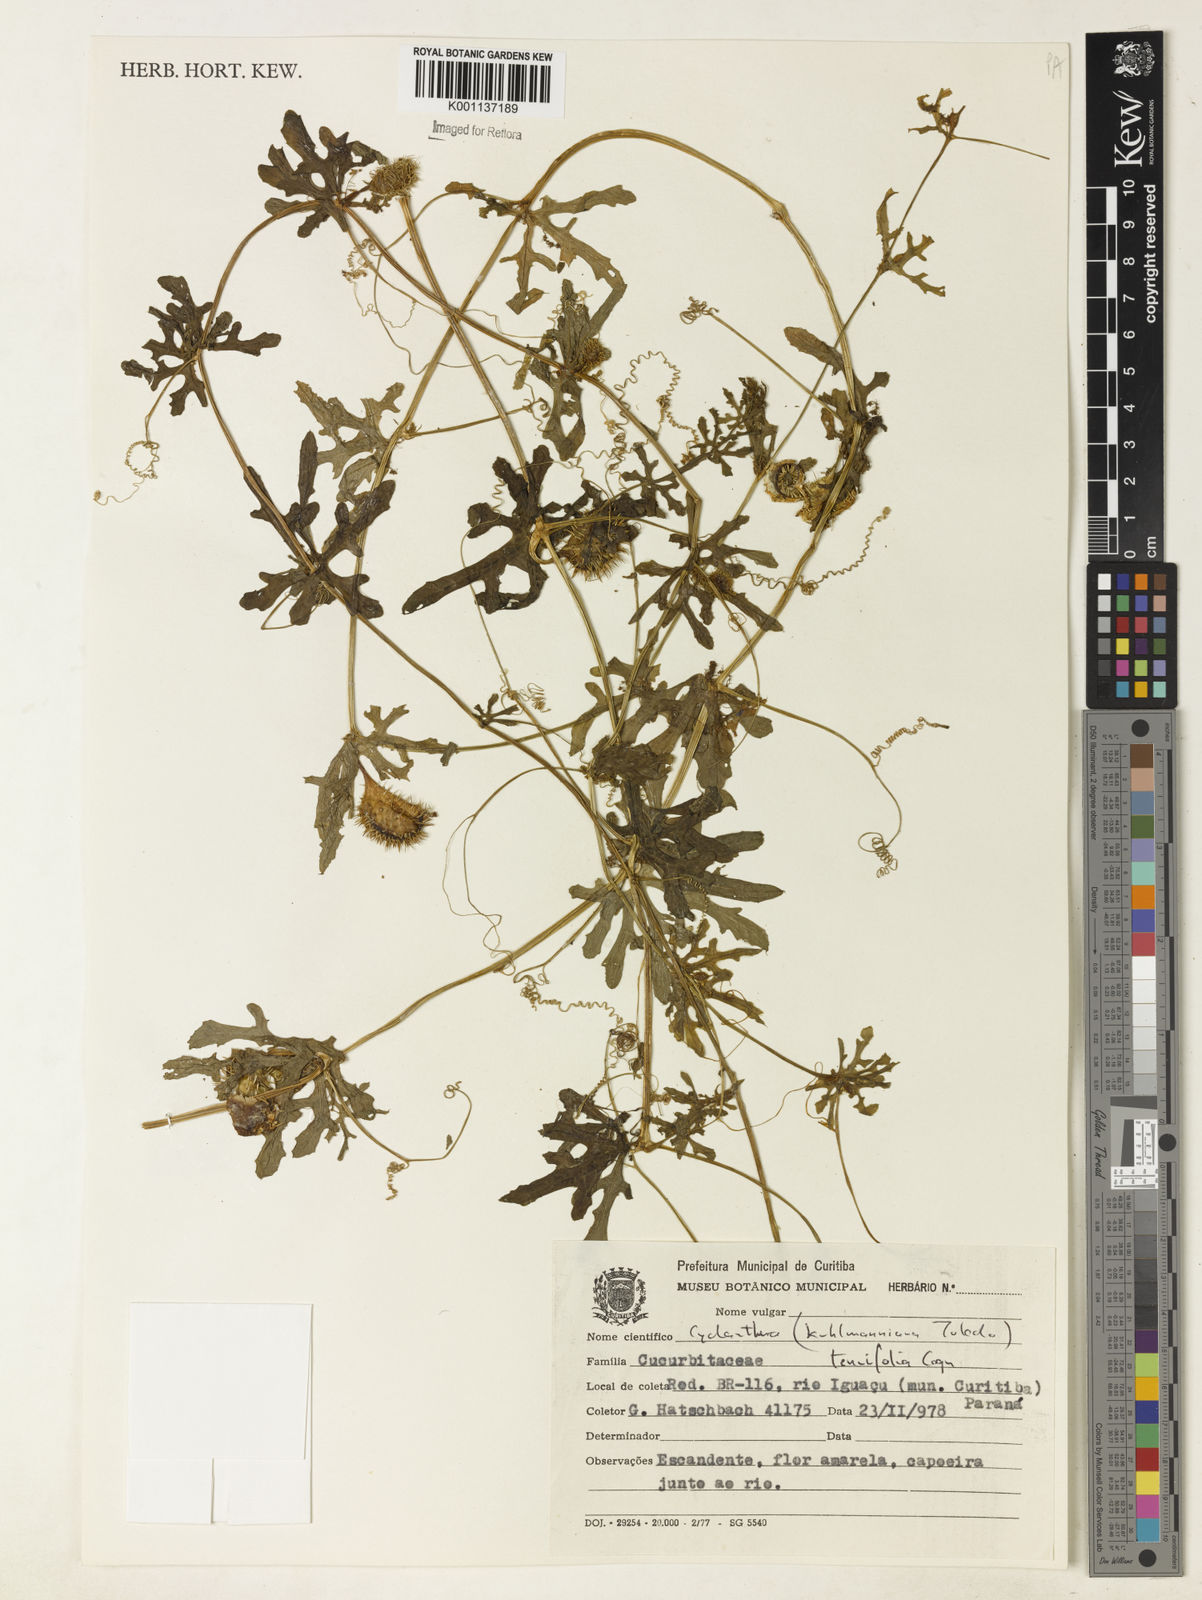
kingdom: Plantae
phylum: Tracheophyta
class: Magnoliopsida
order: Cucurbitales
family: Cucurbitaceae
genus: Cyclanthera
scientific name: Cyclanthera tenuifolia
